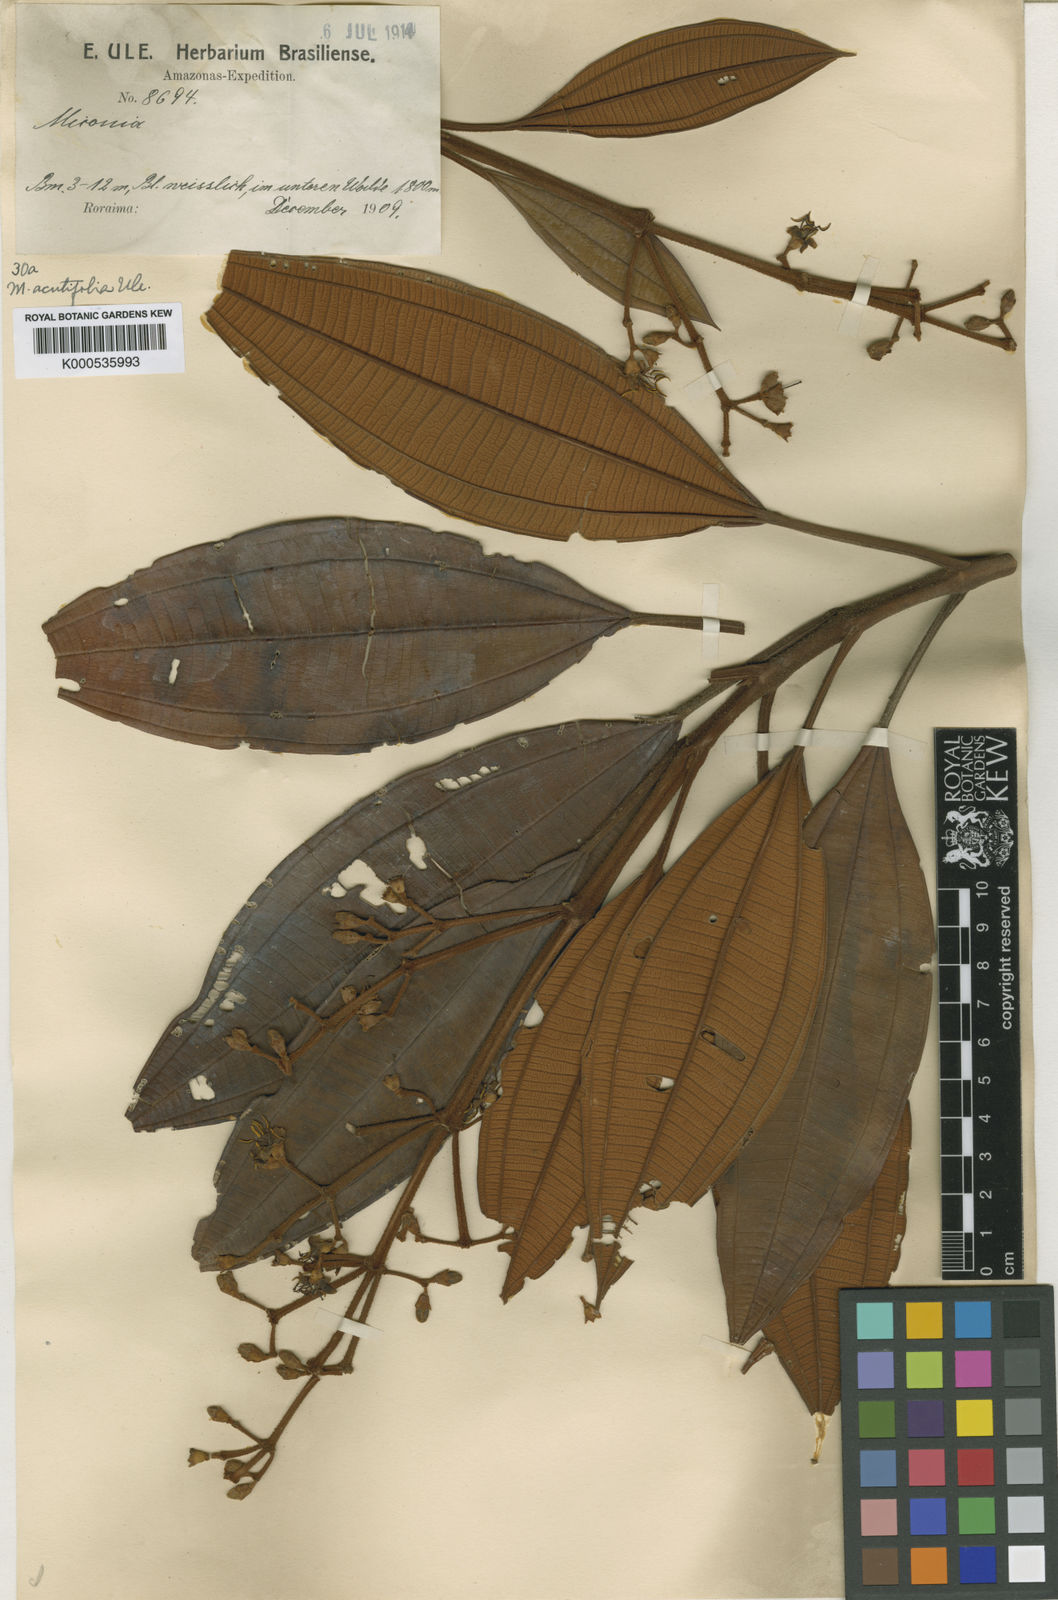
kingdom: Plantae
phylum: Tracheophyta
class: Magnoliopsida
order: Myrtales
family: Melastomataceae
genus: Miconia
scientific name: Miconia acutifolia
